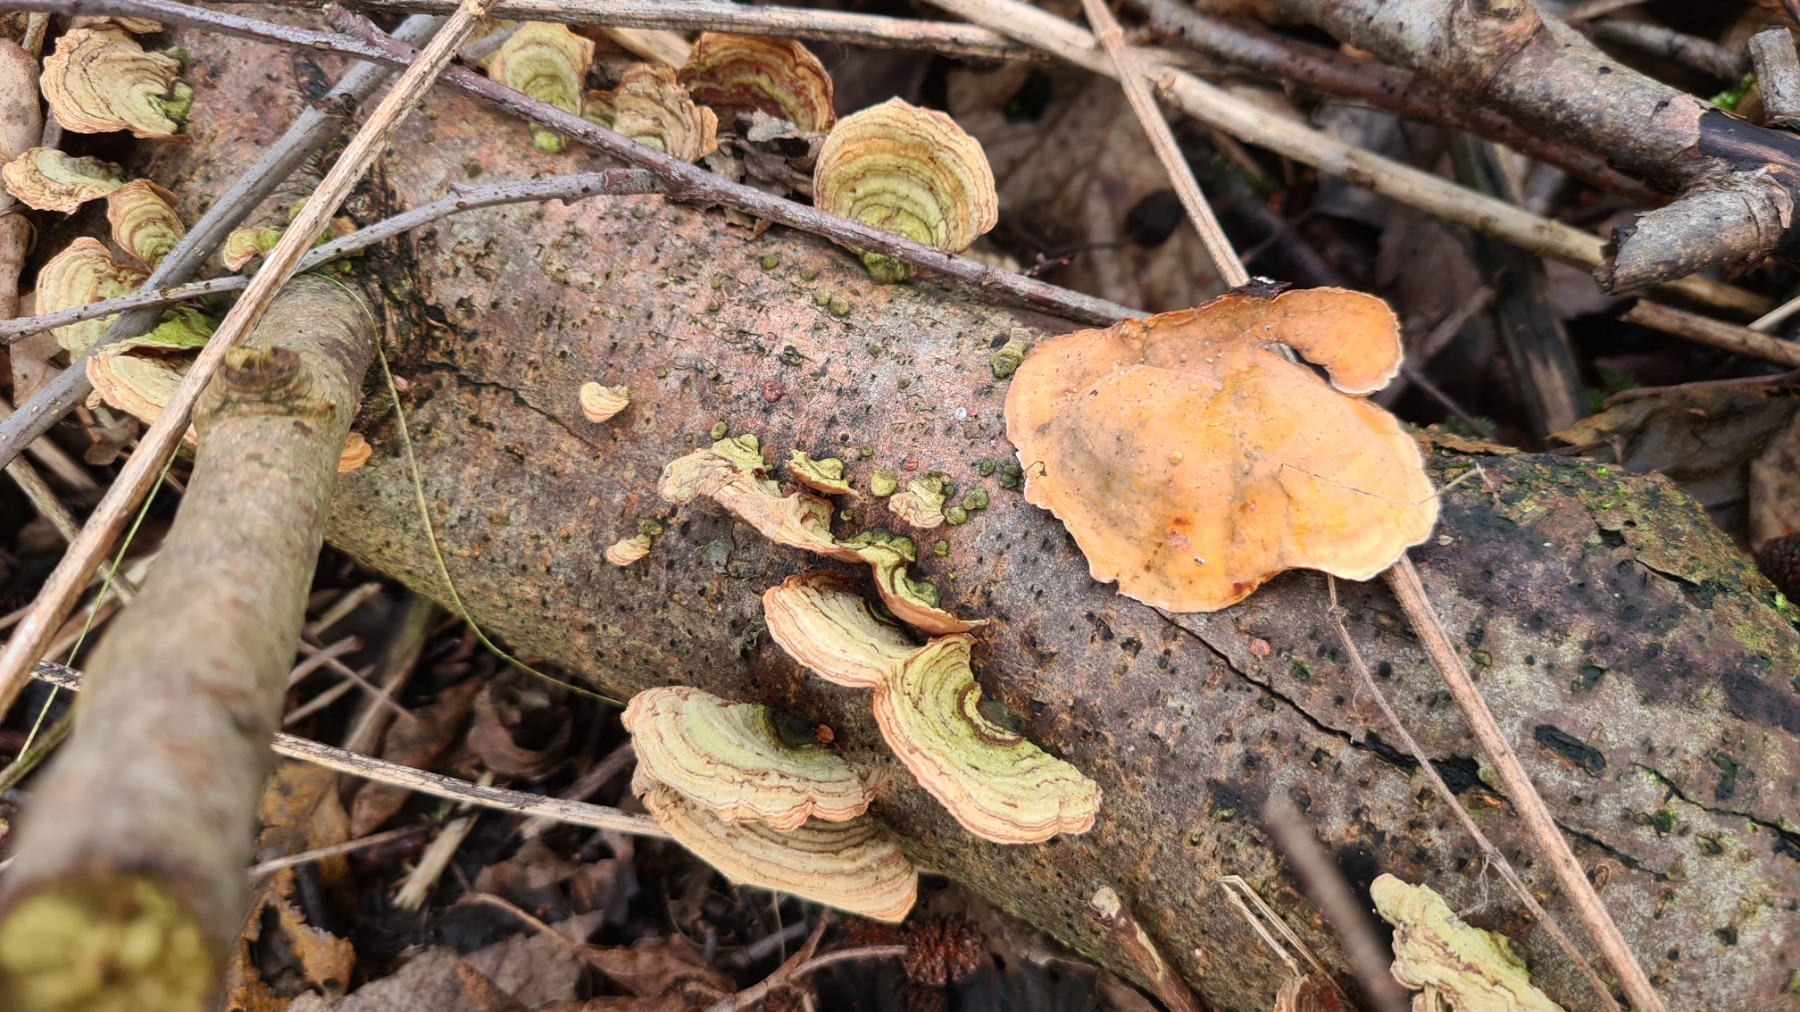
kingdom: Fungi
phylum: Basidiomycota
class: Agaricomycetes
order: Russulales
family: Stereaceae
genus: Stereum
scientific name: Stereum subtomentosum
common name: smuk lædersvamp
